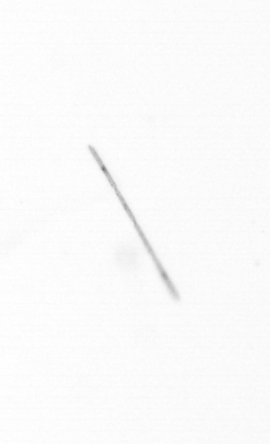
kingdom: Chromista
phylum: Ochrophyta
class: Bacillariophyceae
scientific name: Bacillariophyceae
